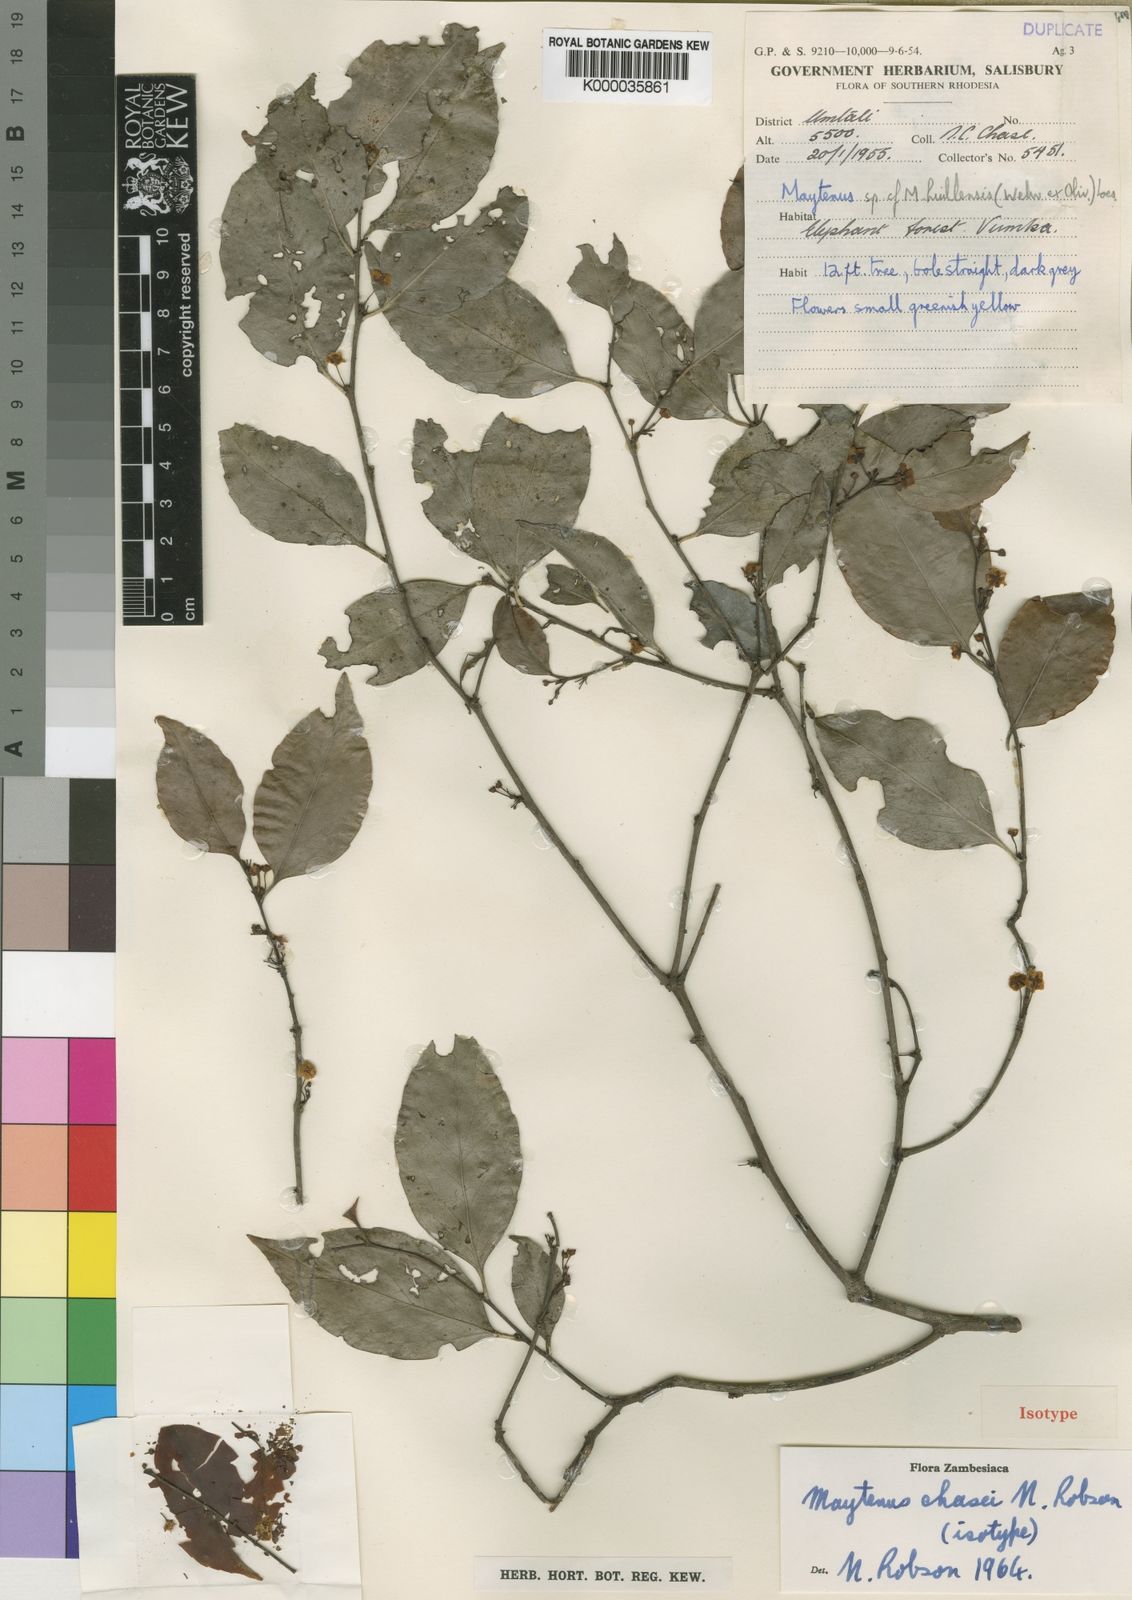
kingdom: Plantae
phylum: Tracheophyta
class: Magnoliopsida
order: Celastrales
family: Celastraceae
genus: Gymnosporia
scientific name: Gymnosporia chasei
